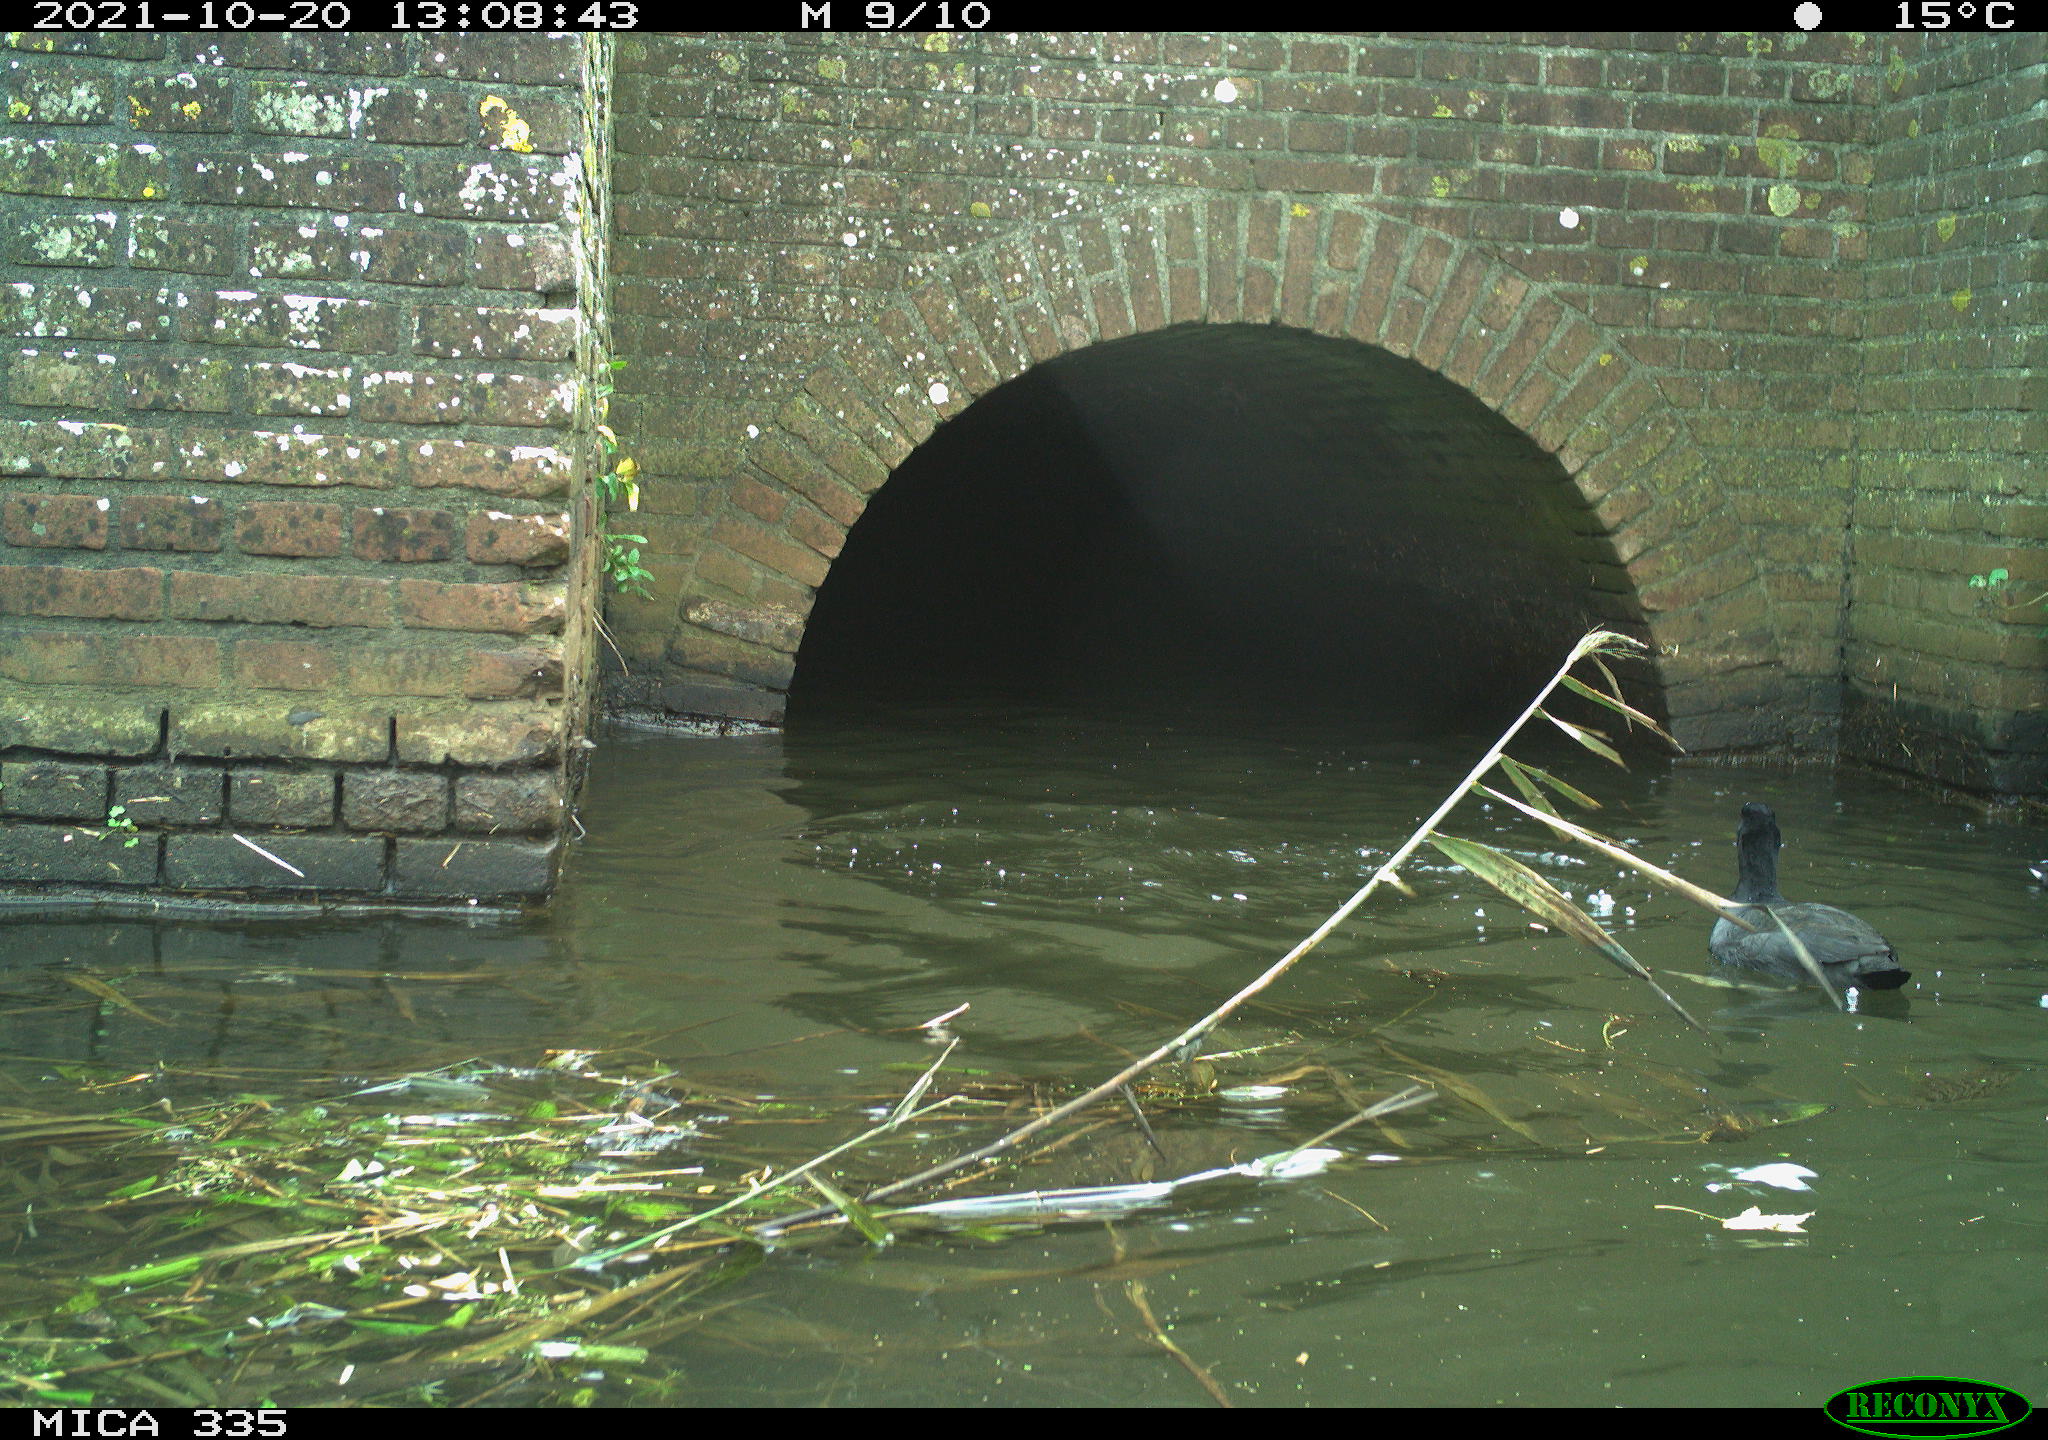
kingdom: Animalia
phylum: Chordata
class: Aves
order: Gruiformes
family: Rallidae
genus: Fulica
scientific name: Fulica atra
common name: Eurasian coot
